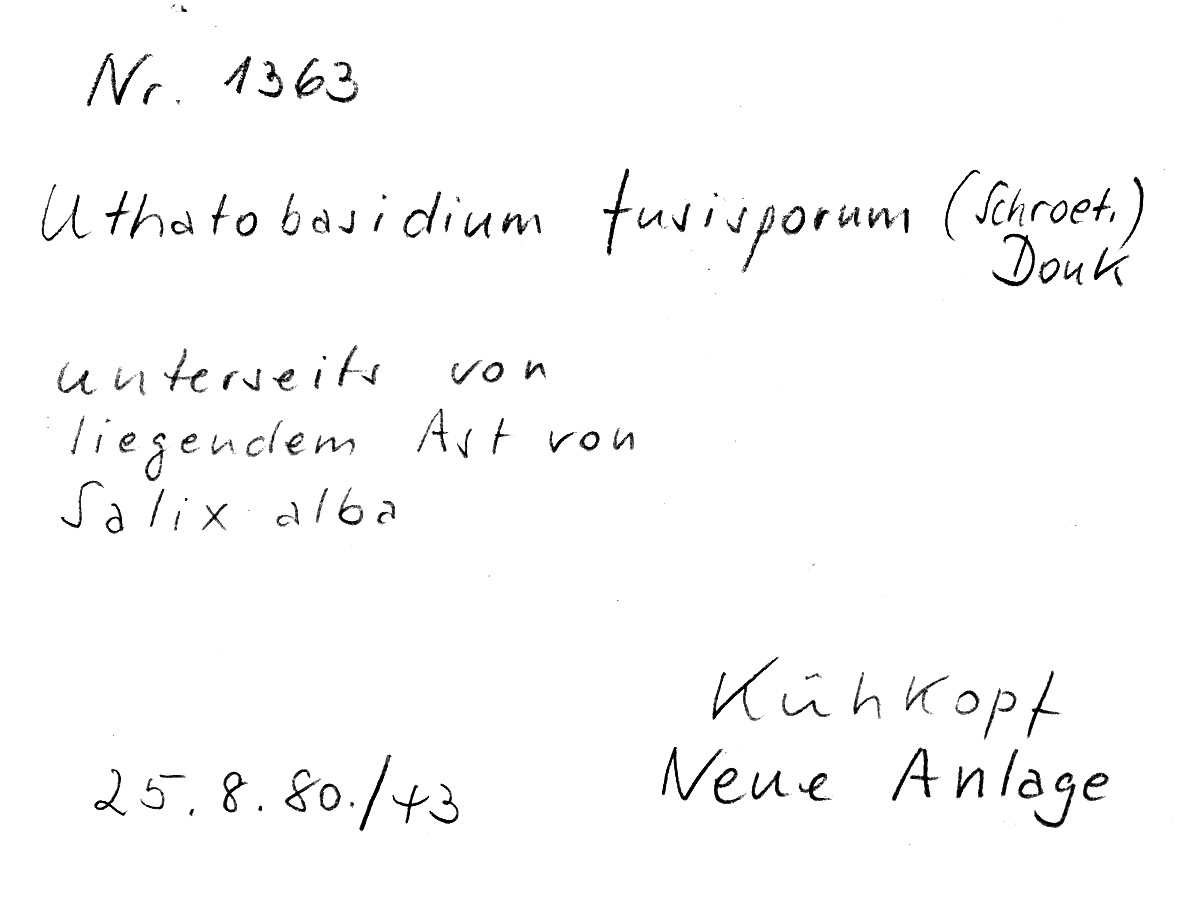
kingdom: Fungi
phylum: Basidiomycota
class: Agaricomycetes
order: Cantharellales
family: Ceratobasidiaceae
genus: Rhizoctonia
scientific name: Rhizoctonia fusispora
